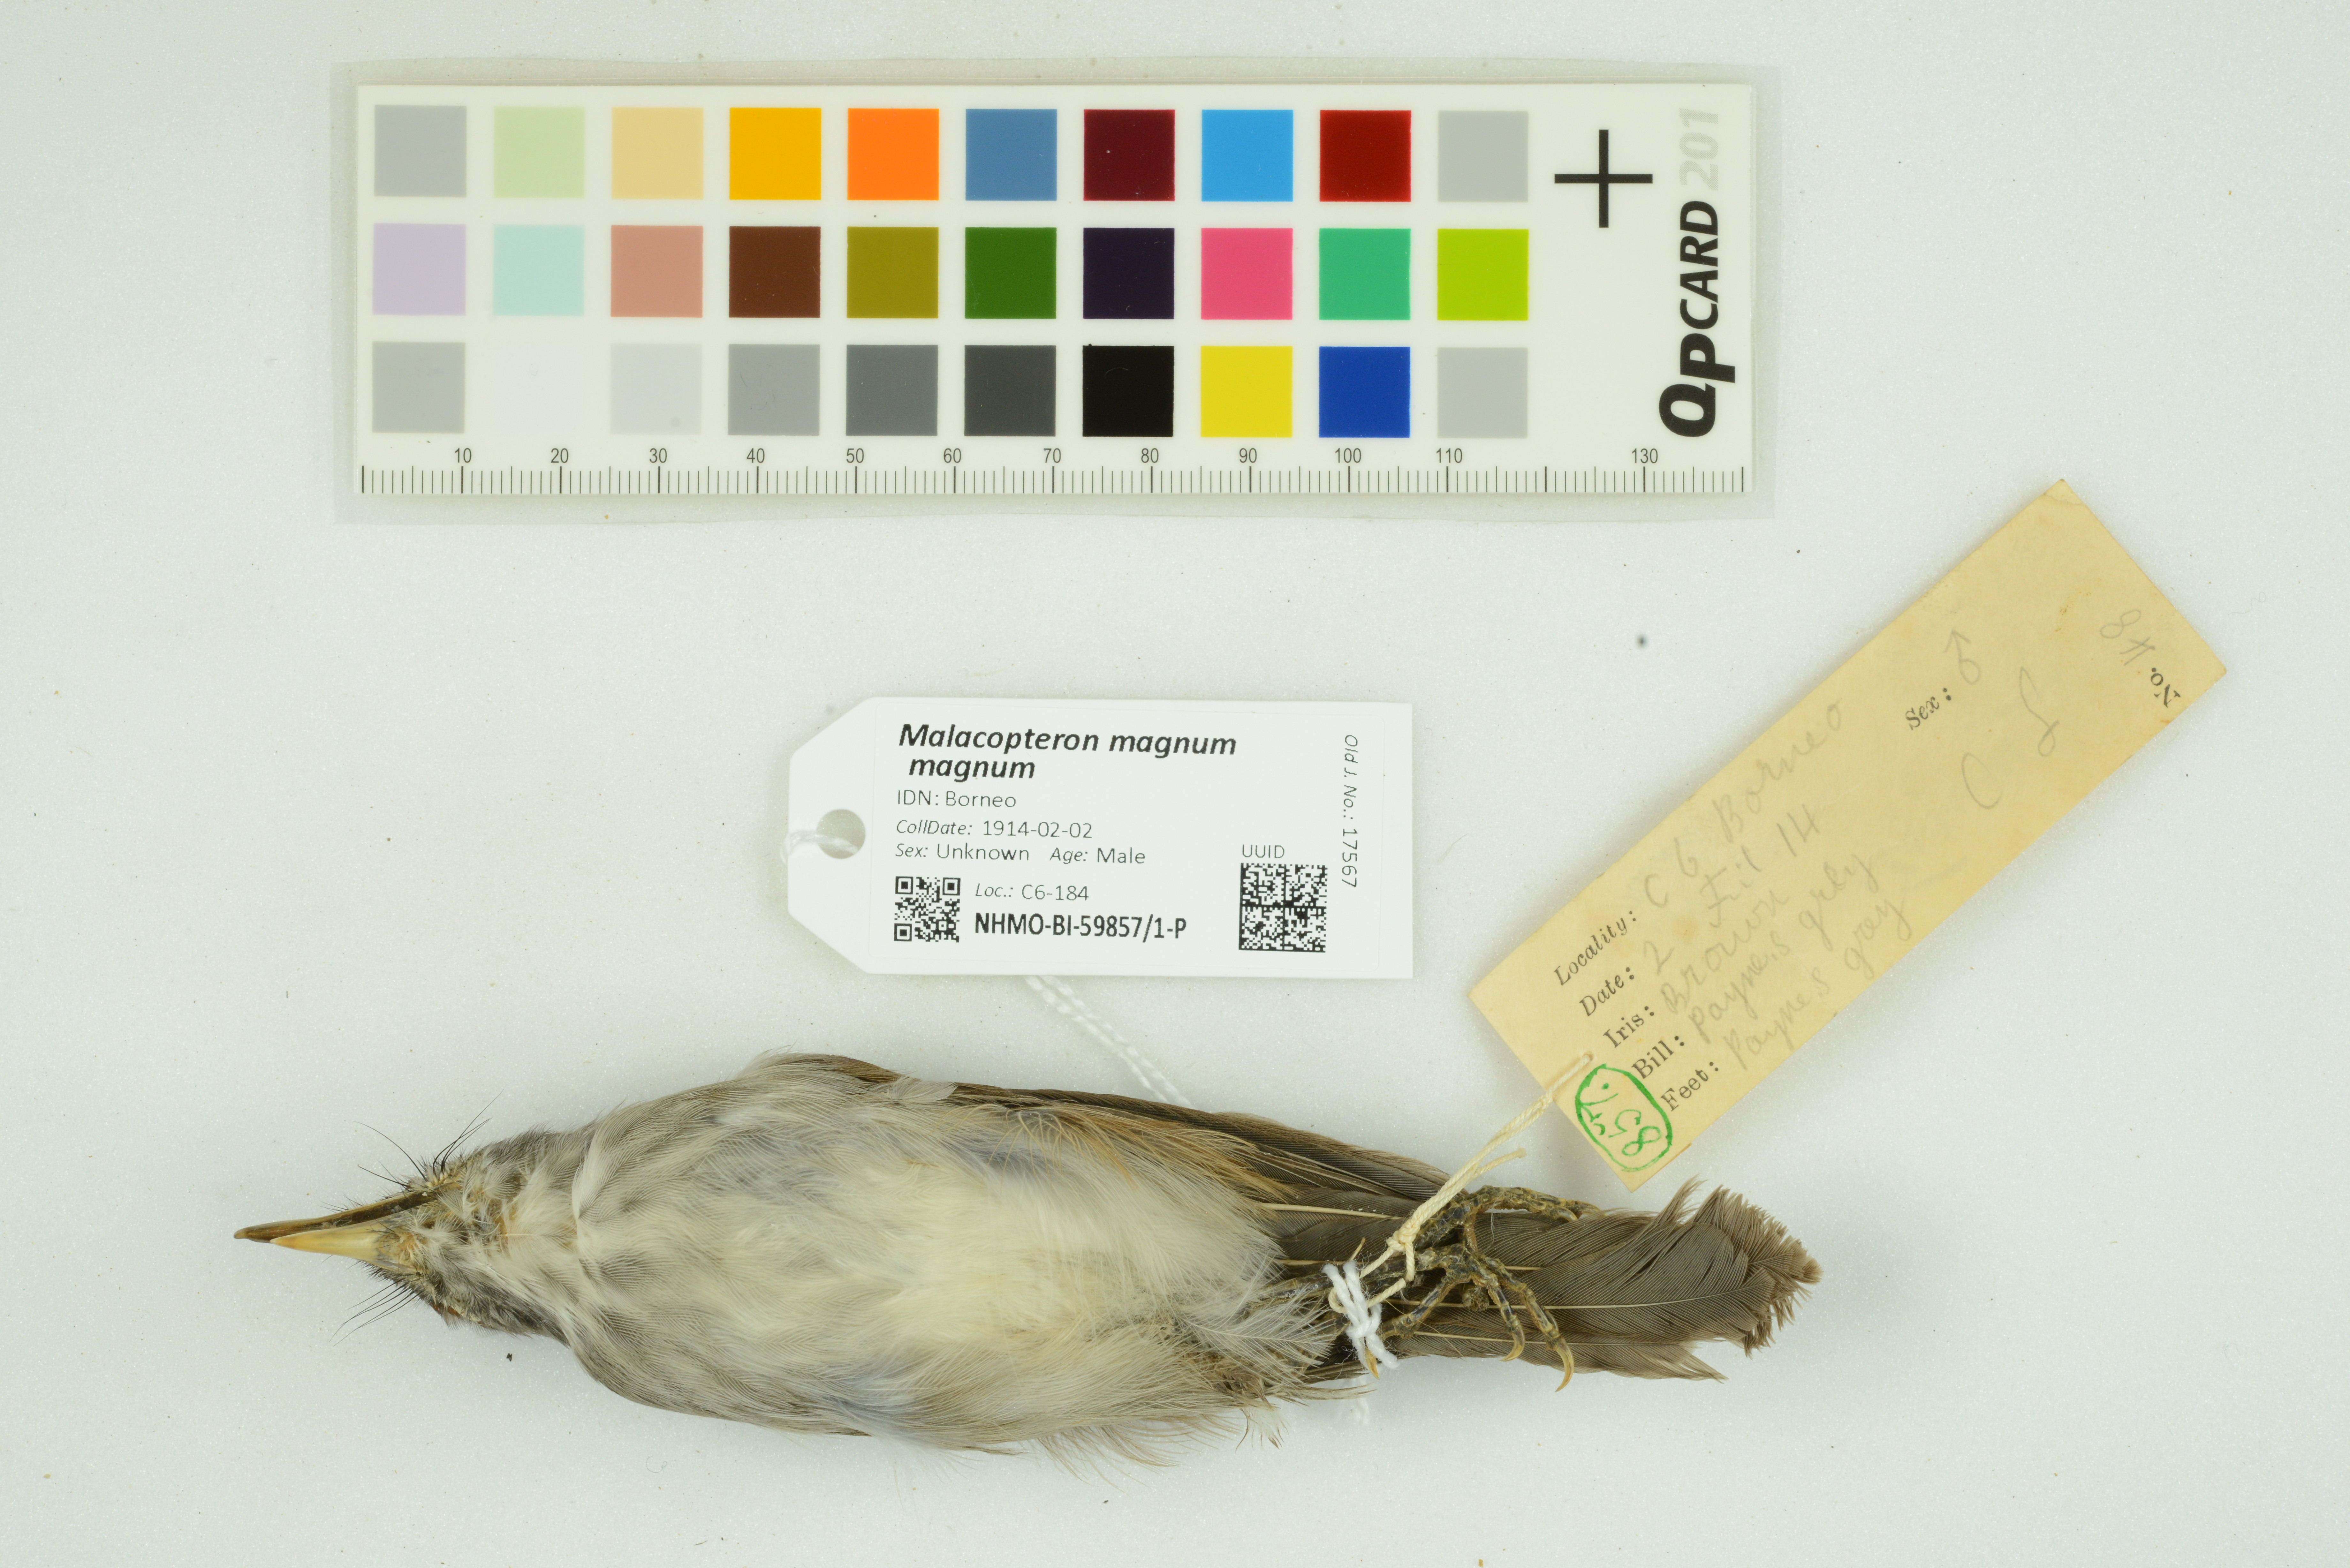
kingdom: Animalia
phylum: Chordata
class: Aves
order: Passeriformes
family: Pellorneidae
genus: Malacopteron
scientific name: Malacopteron magnum
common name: Rufous-crowned babbler
